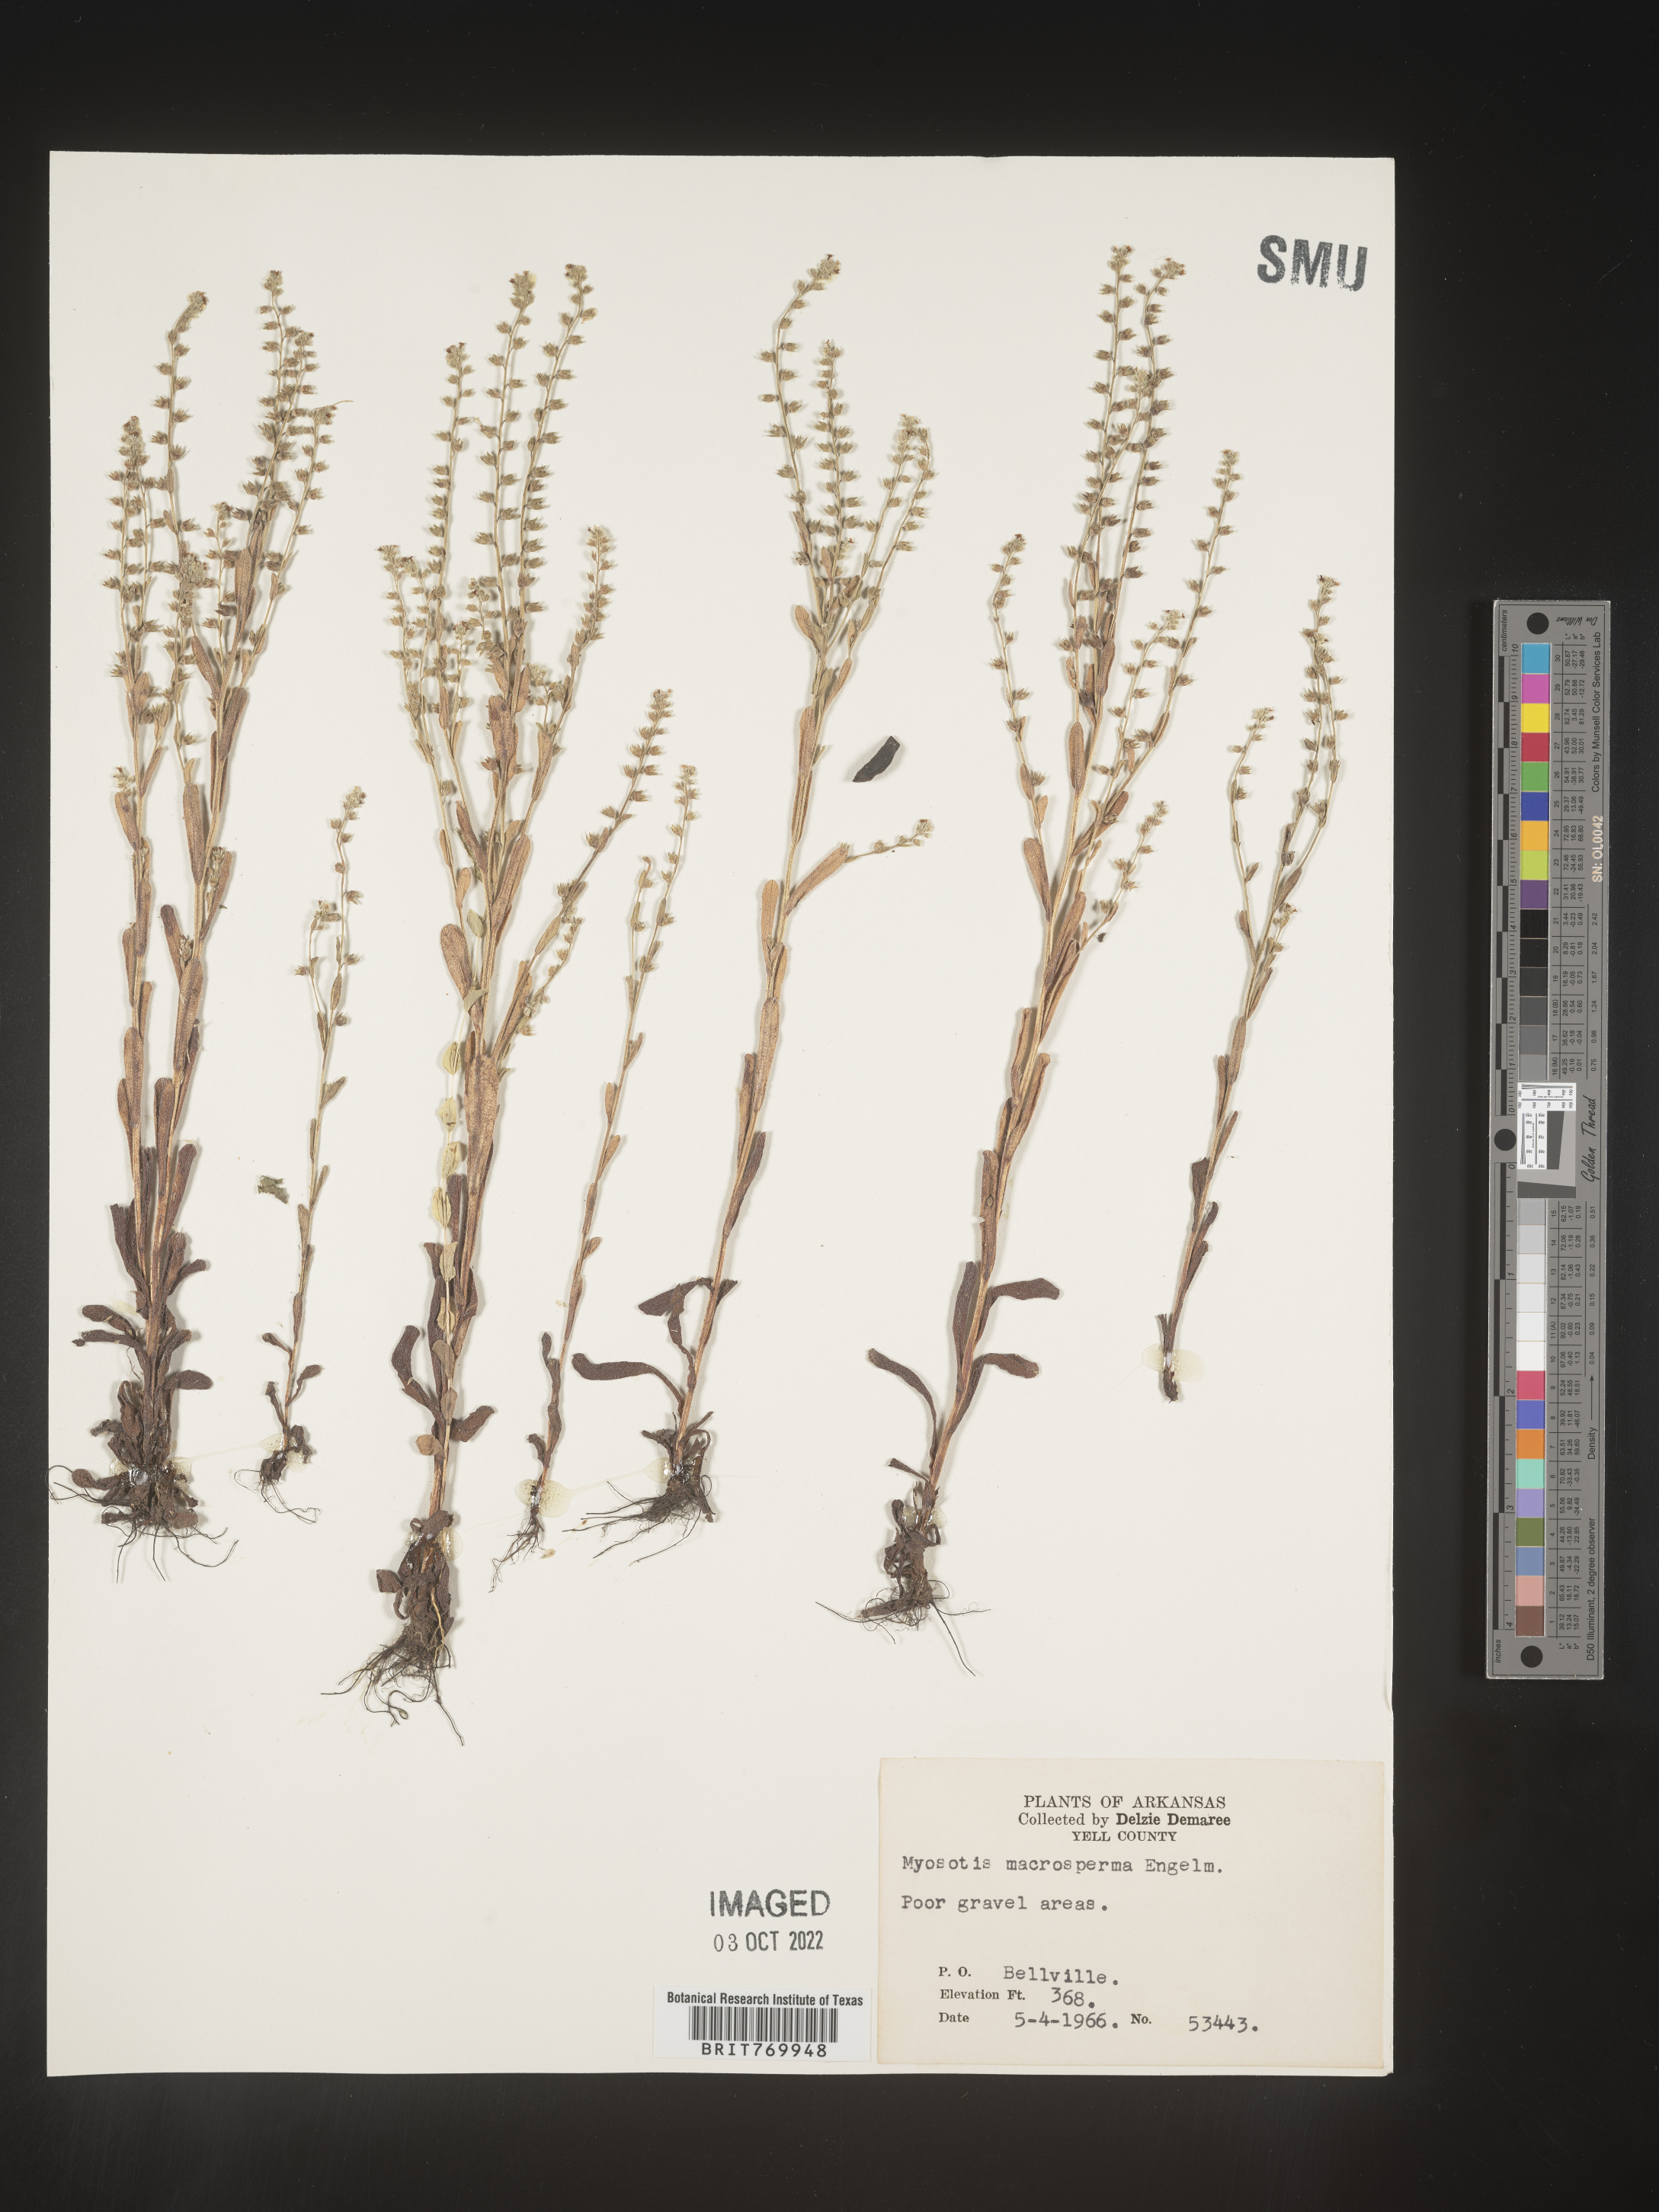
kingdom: Plantae
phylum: Tracheophyta
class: Magnoliopsida
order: Boraginales
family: Boraginaceae
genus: Myosotis
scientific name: Myosotis verna
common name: Early forget-me-not
